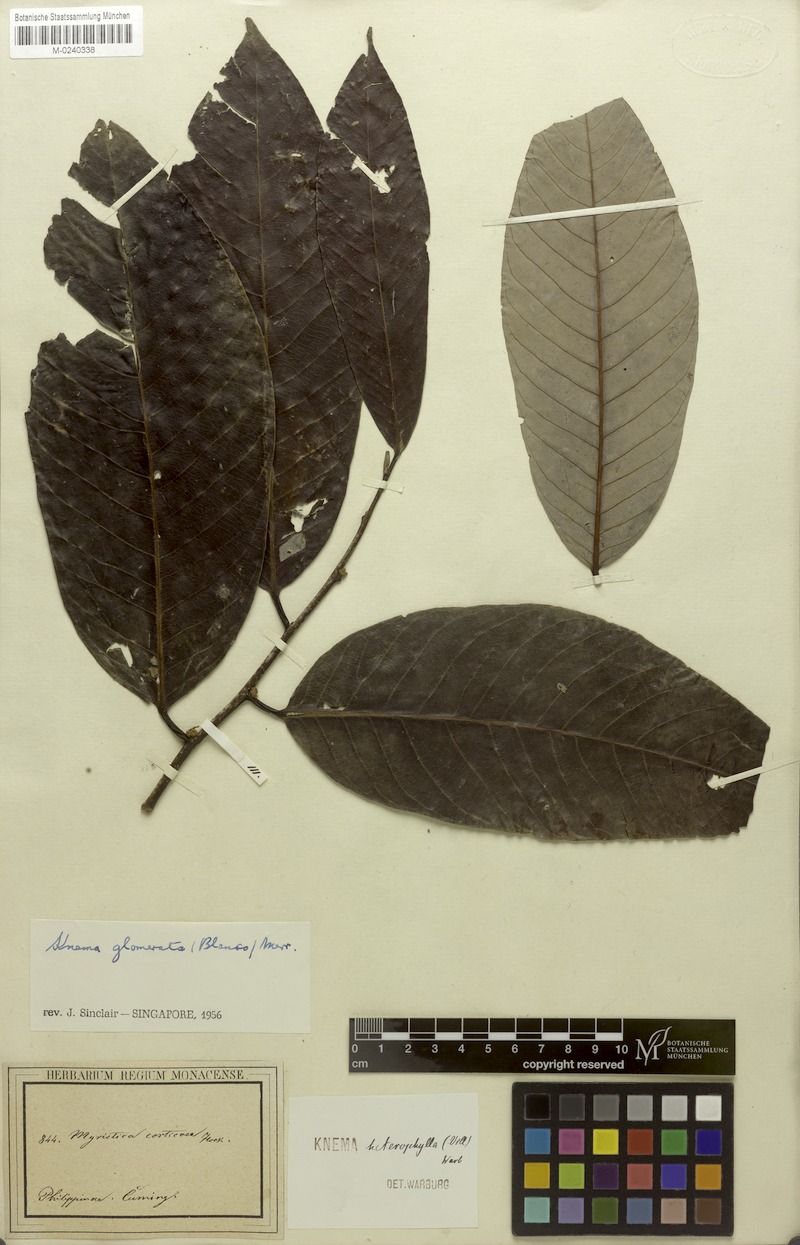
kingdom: Plantae
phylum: Tracheophyta
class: Magnoliopsida
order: Magnoliales
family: Myristicaceae
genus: Knema
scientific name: Knema glomerata
